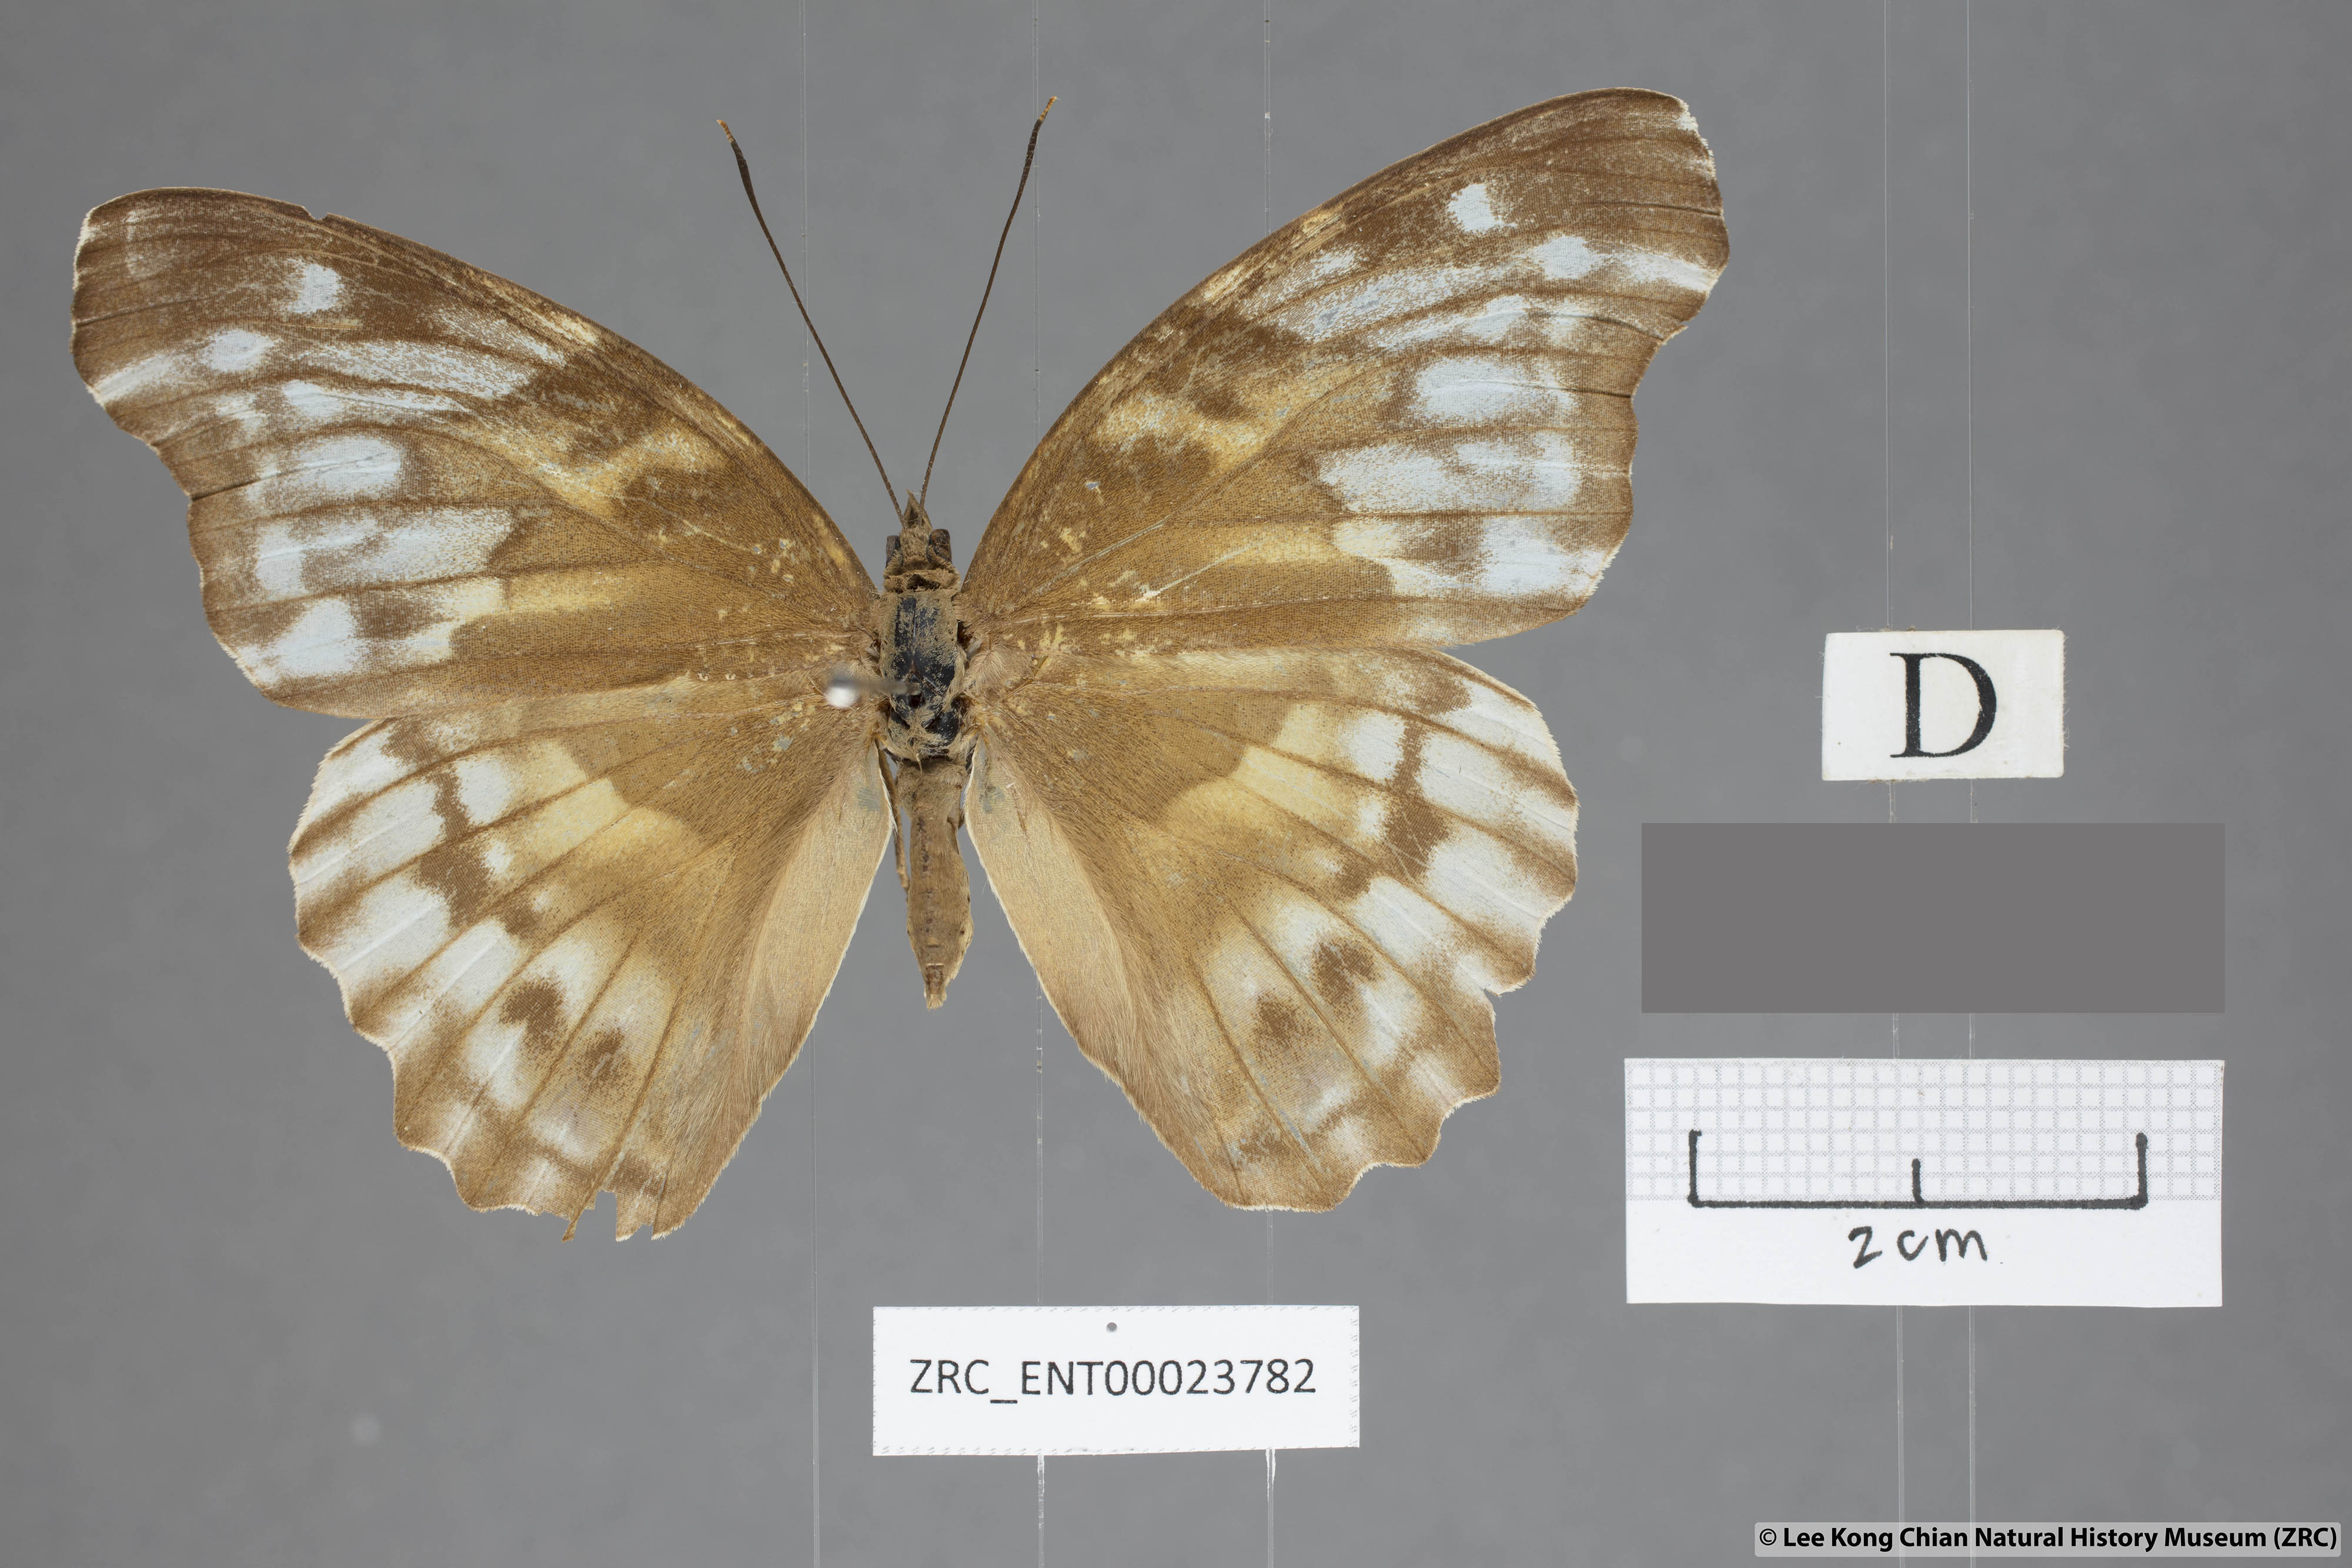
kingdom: Animalia
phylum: Arthropoda
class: Insecta
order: Lepidoptera
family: Nymphalidae
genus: Herona
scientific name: Herona sumatrana
